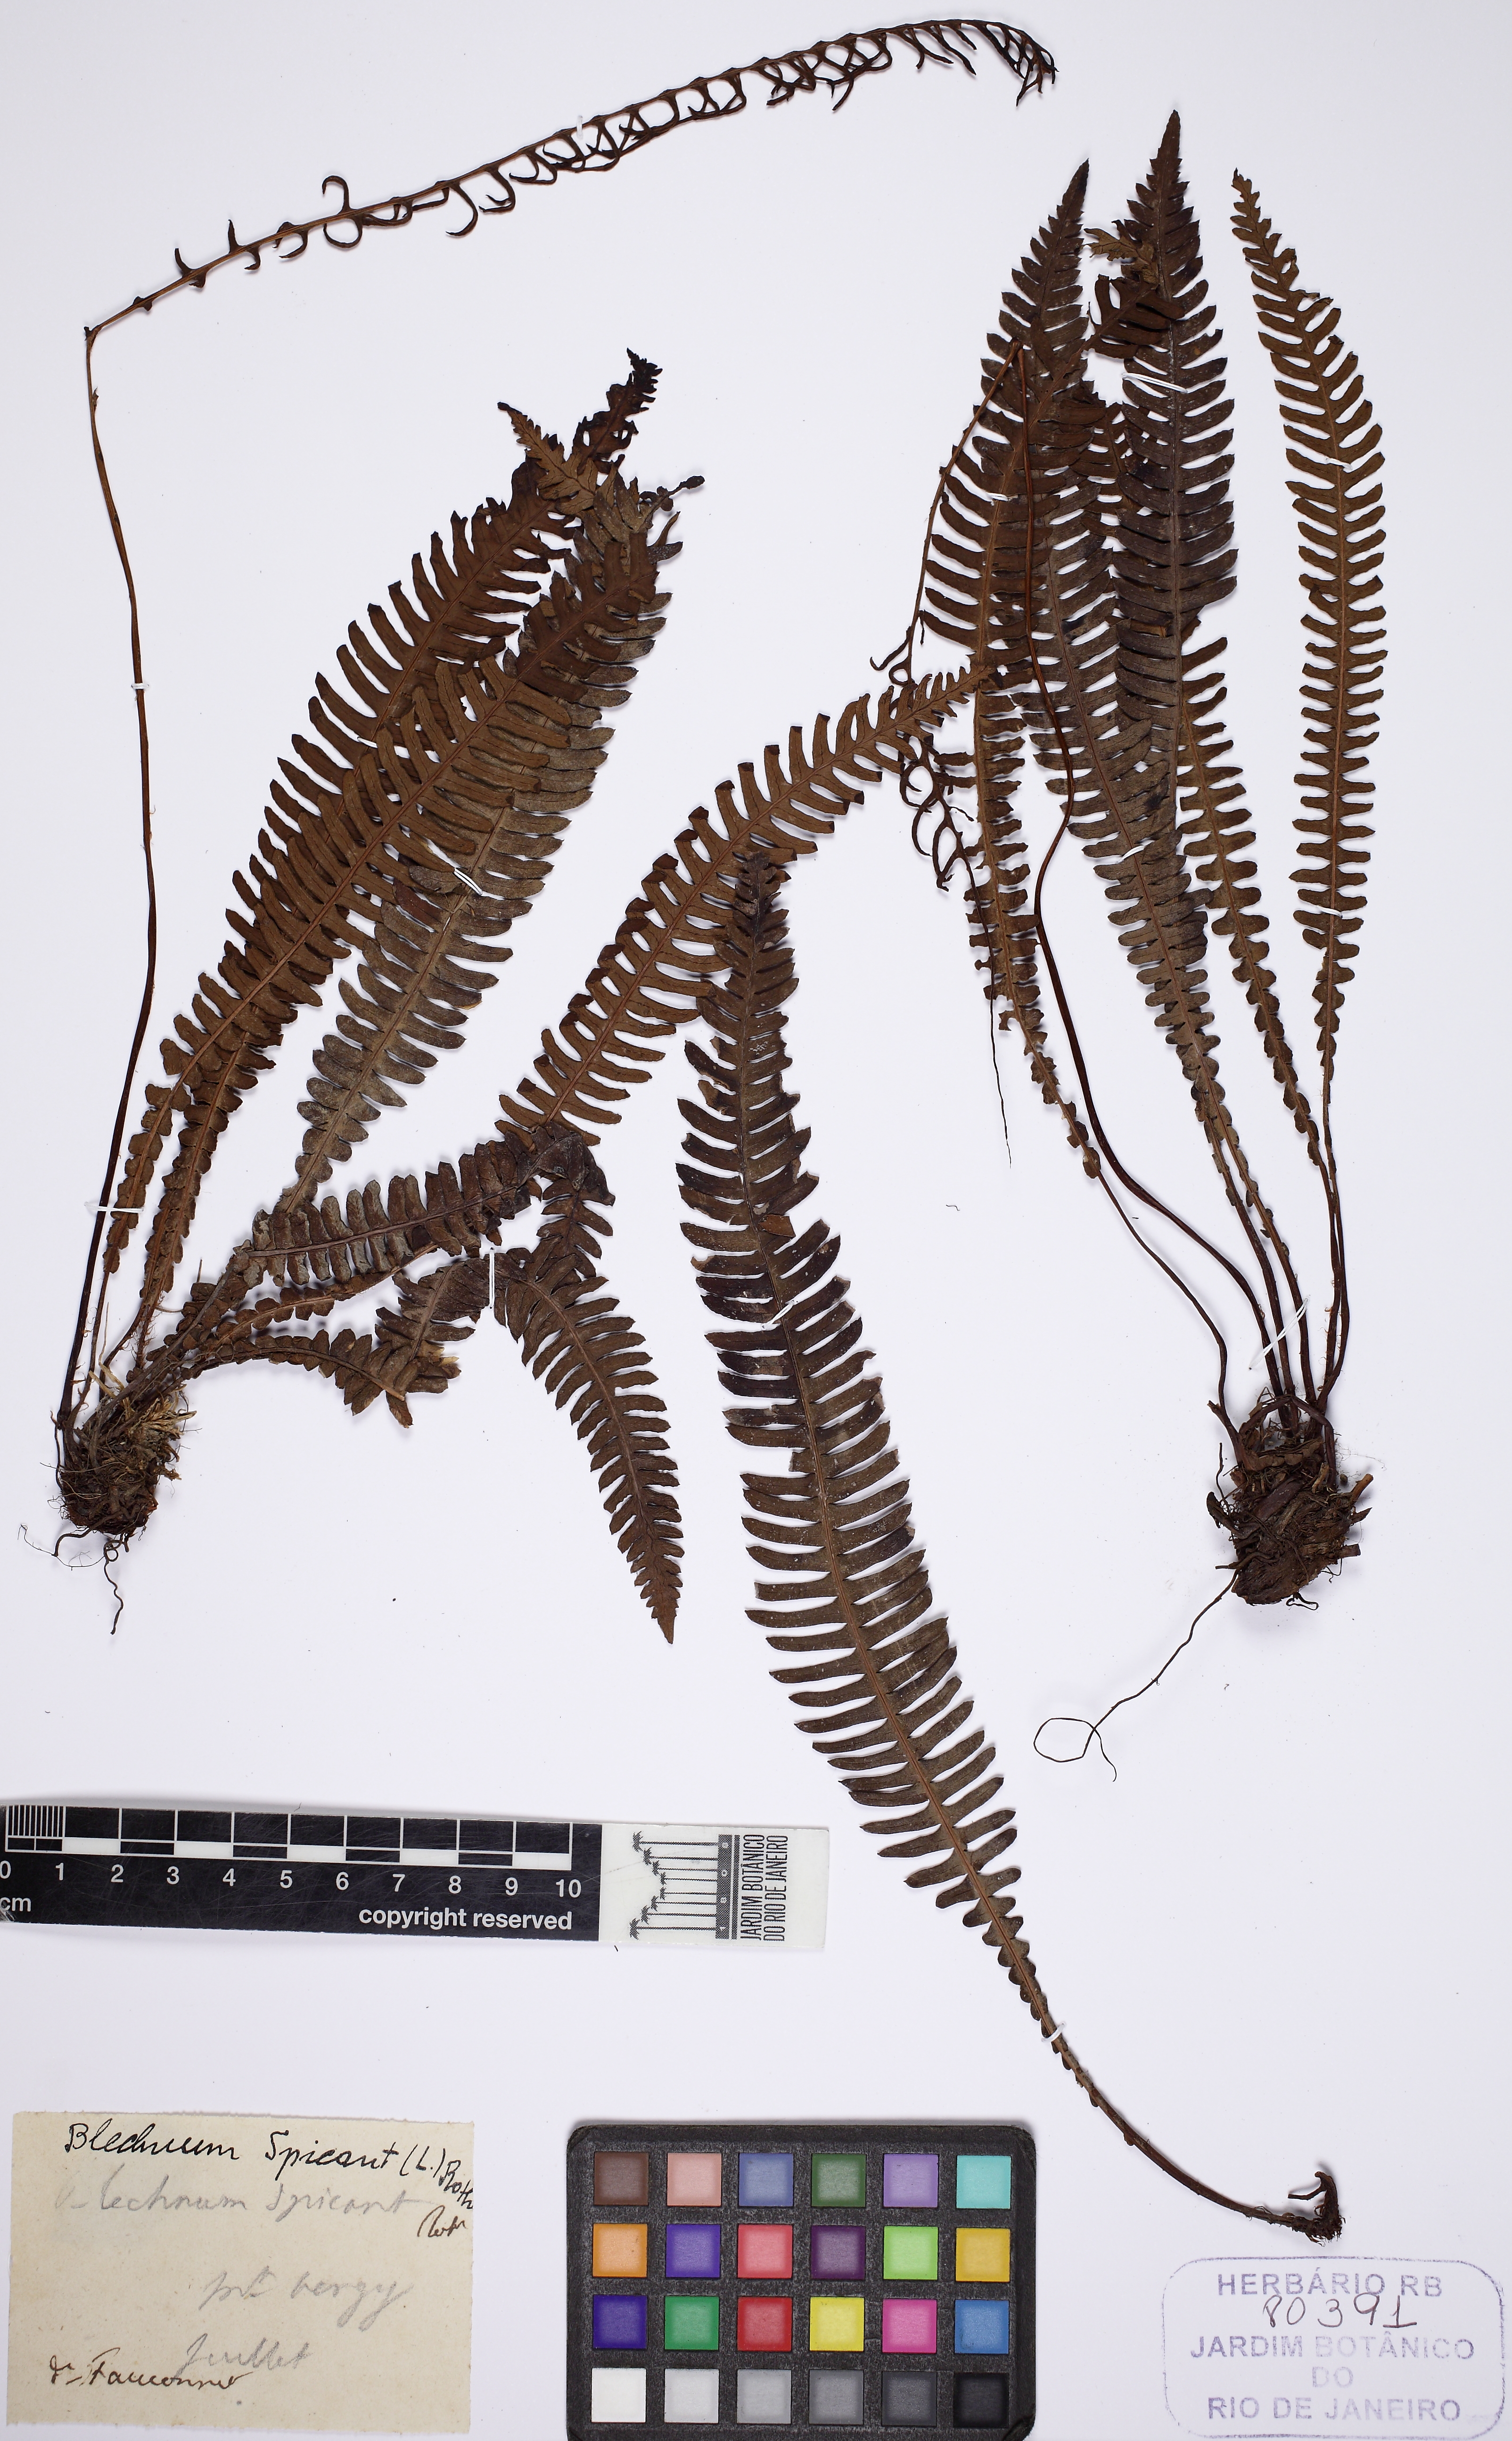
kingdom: Plantae
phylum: Tracheophyta
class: Polypodiopsida
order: Polypodiales
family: Blechnaceae
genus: Struthiopteris
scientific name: Struthiopteris spicant
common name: Deer fern
